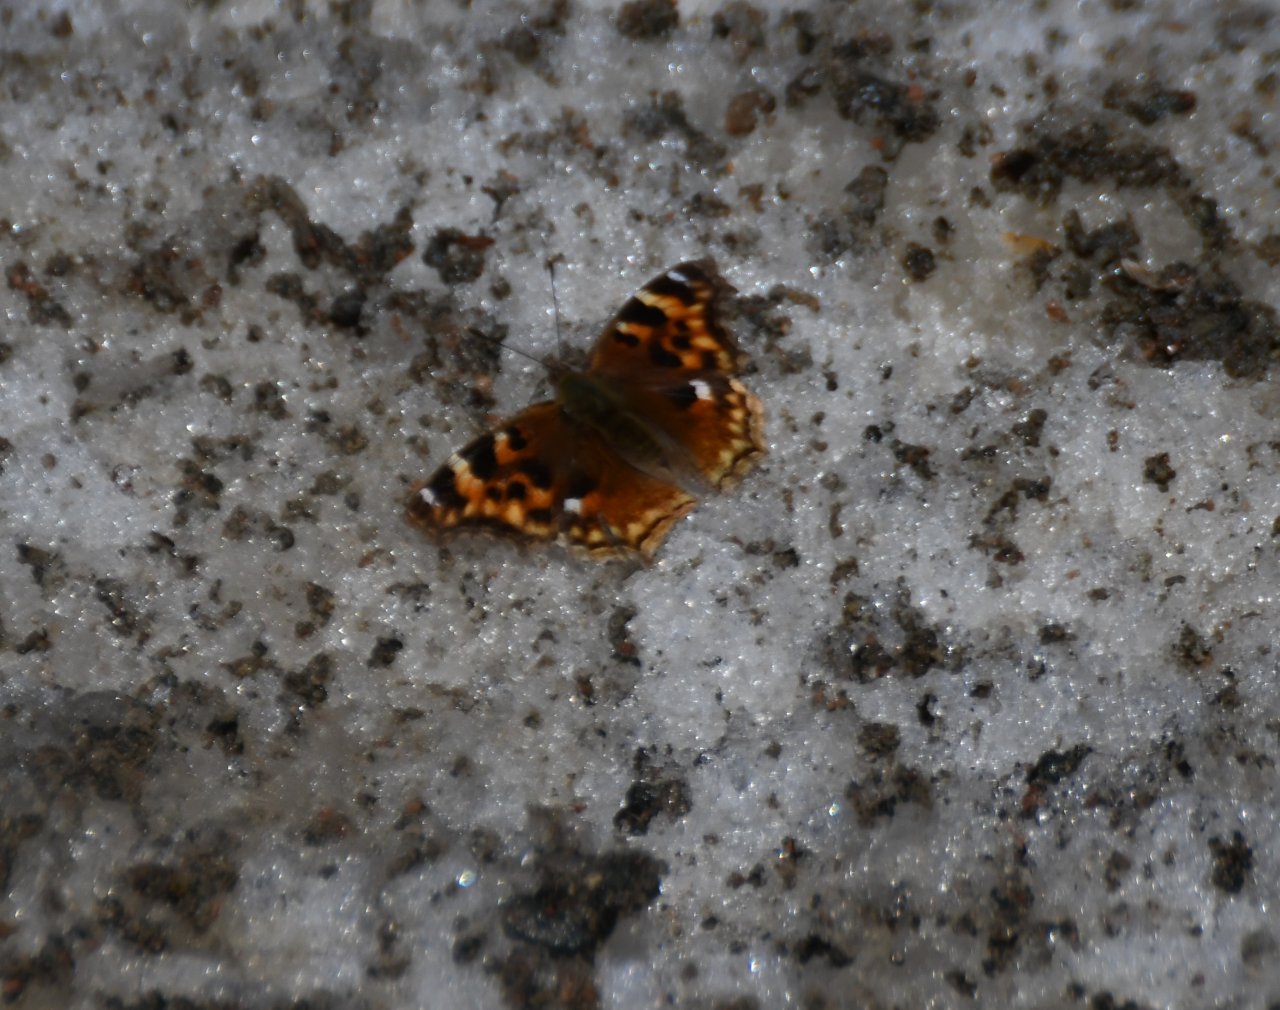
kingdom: Animalia
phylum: Arthropoda
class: Insecta
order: Lepidoptera
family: Nymphalidae
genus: Polygonia
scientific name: Polygonia vaualbum
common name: Compton Tortoiseshell
